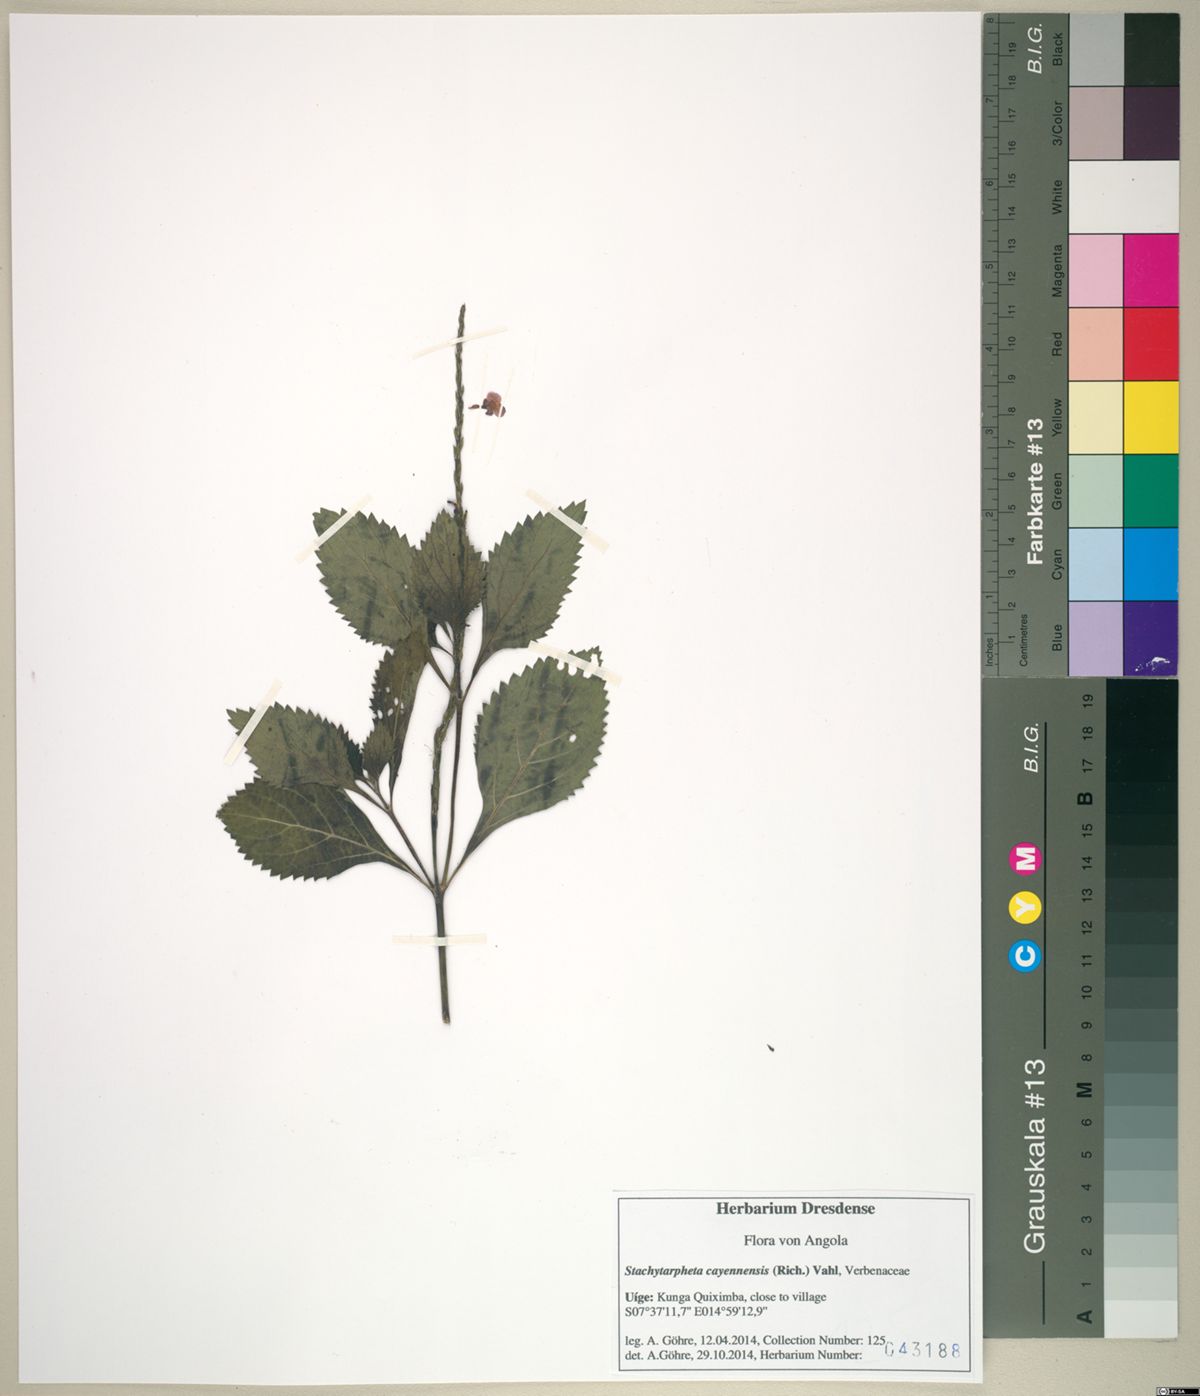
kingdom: Plantae
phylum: Tracheophyta
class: Magnoliopsida
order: Lamiales
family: Verbenaceae
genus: Stachytarpheta
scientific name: Stachytarpheta cayennensis
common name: Cayenne porterweed
